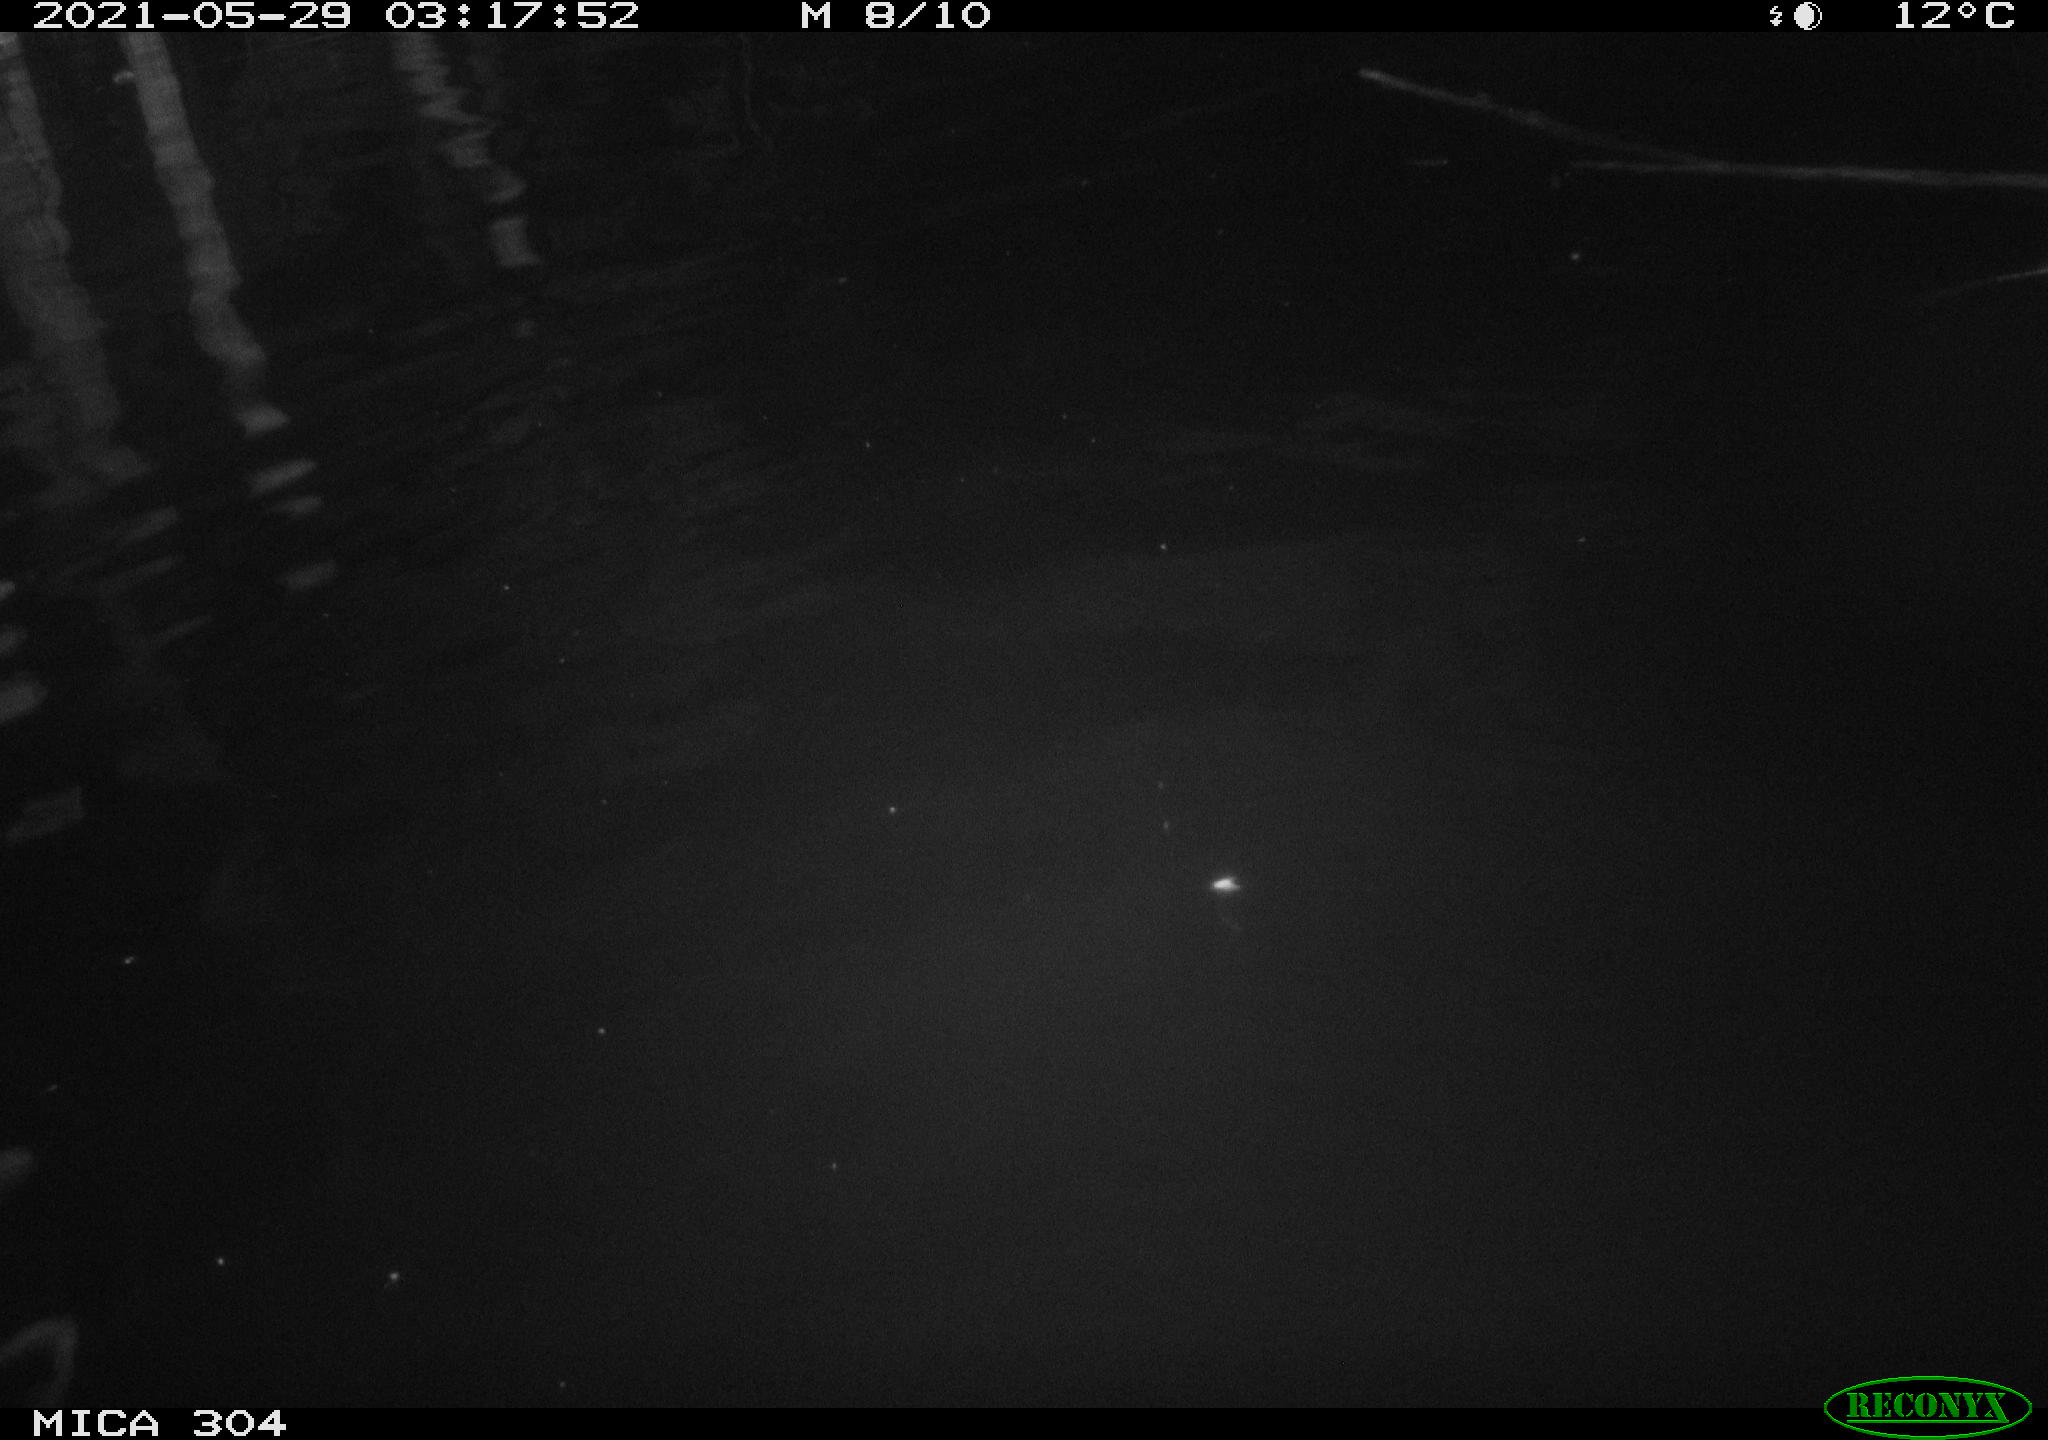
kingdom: Animalia
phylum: Chordata
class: Aves
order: Anseriformes
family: Anatidae
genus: Anas
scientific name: Anas platyrhynchos
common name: Mallard
